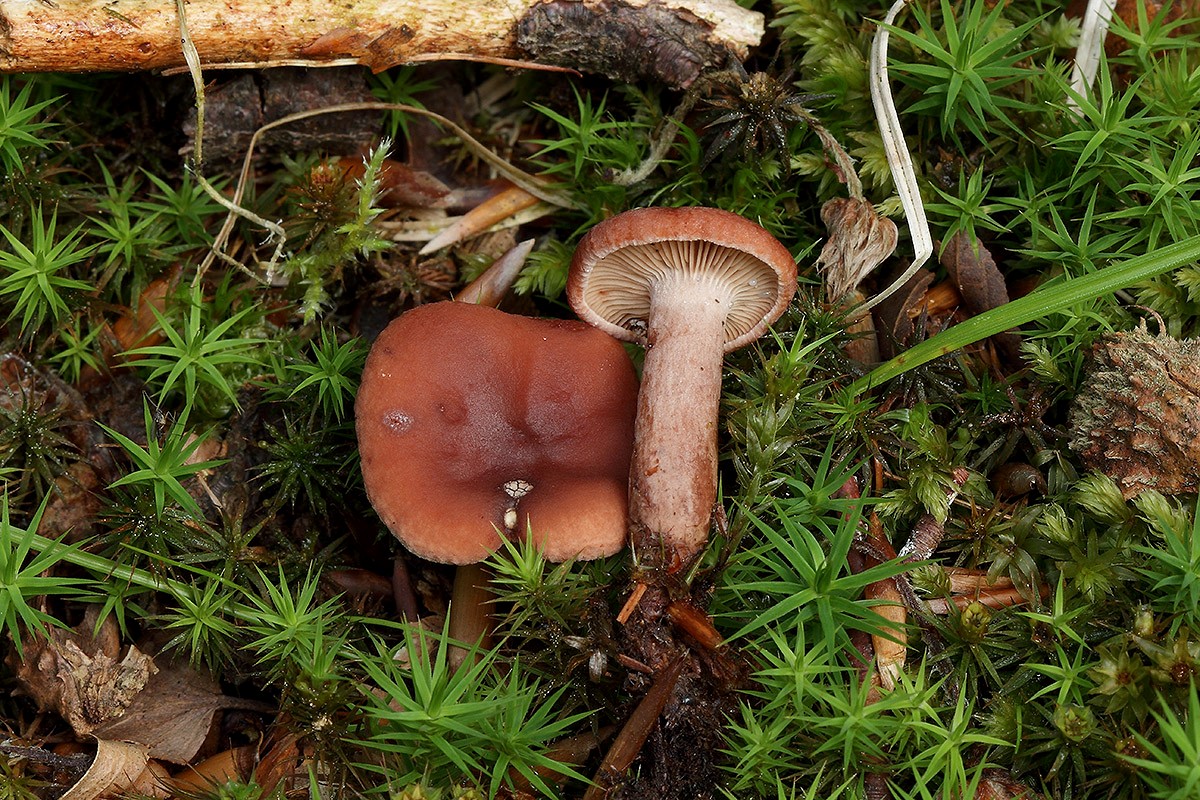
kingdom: Fungi
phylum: Basidiomycota
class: Agaricomycetes
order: Russulales
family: Russulaceae
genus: Lactarius
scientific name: Lactarius camphoratus
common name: kamfer-mælkehat
